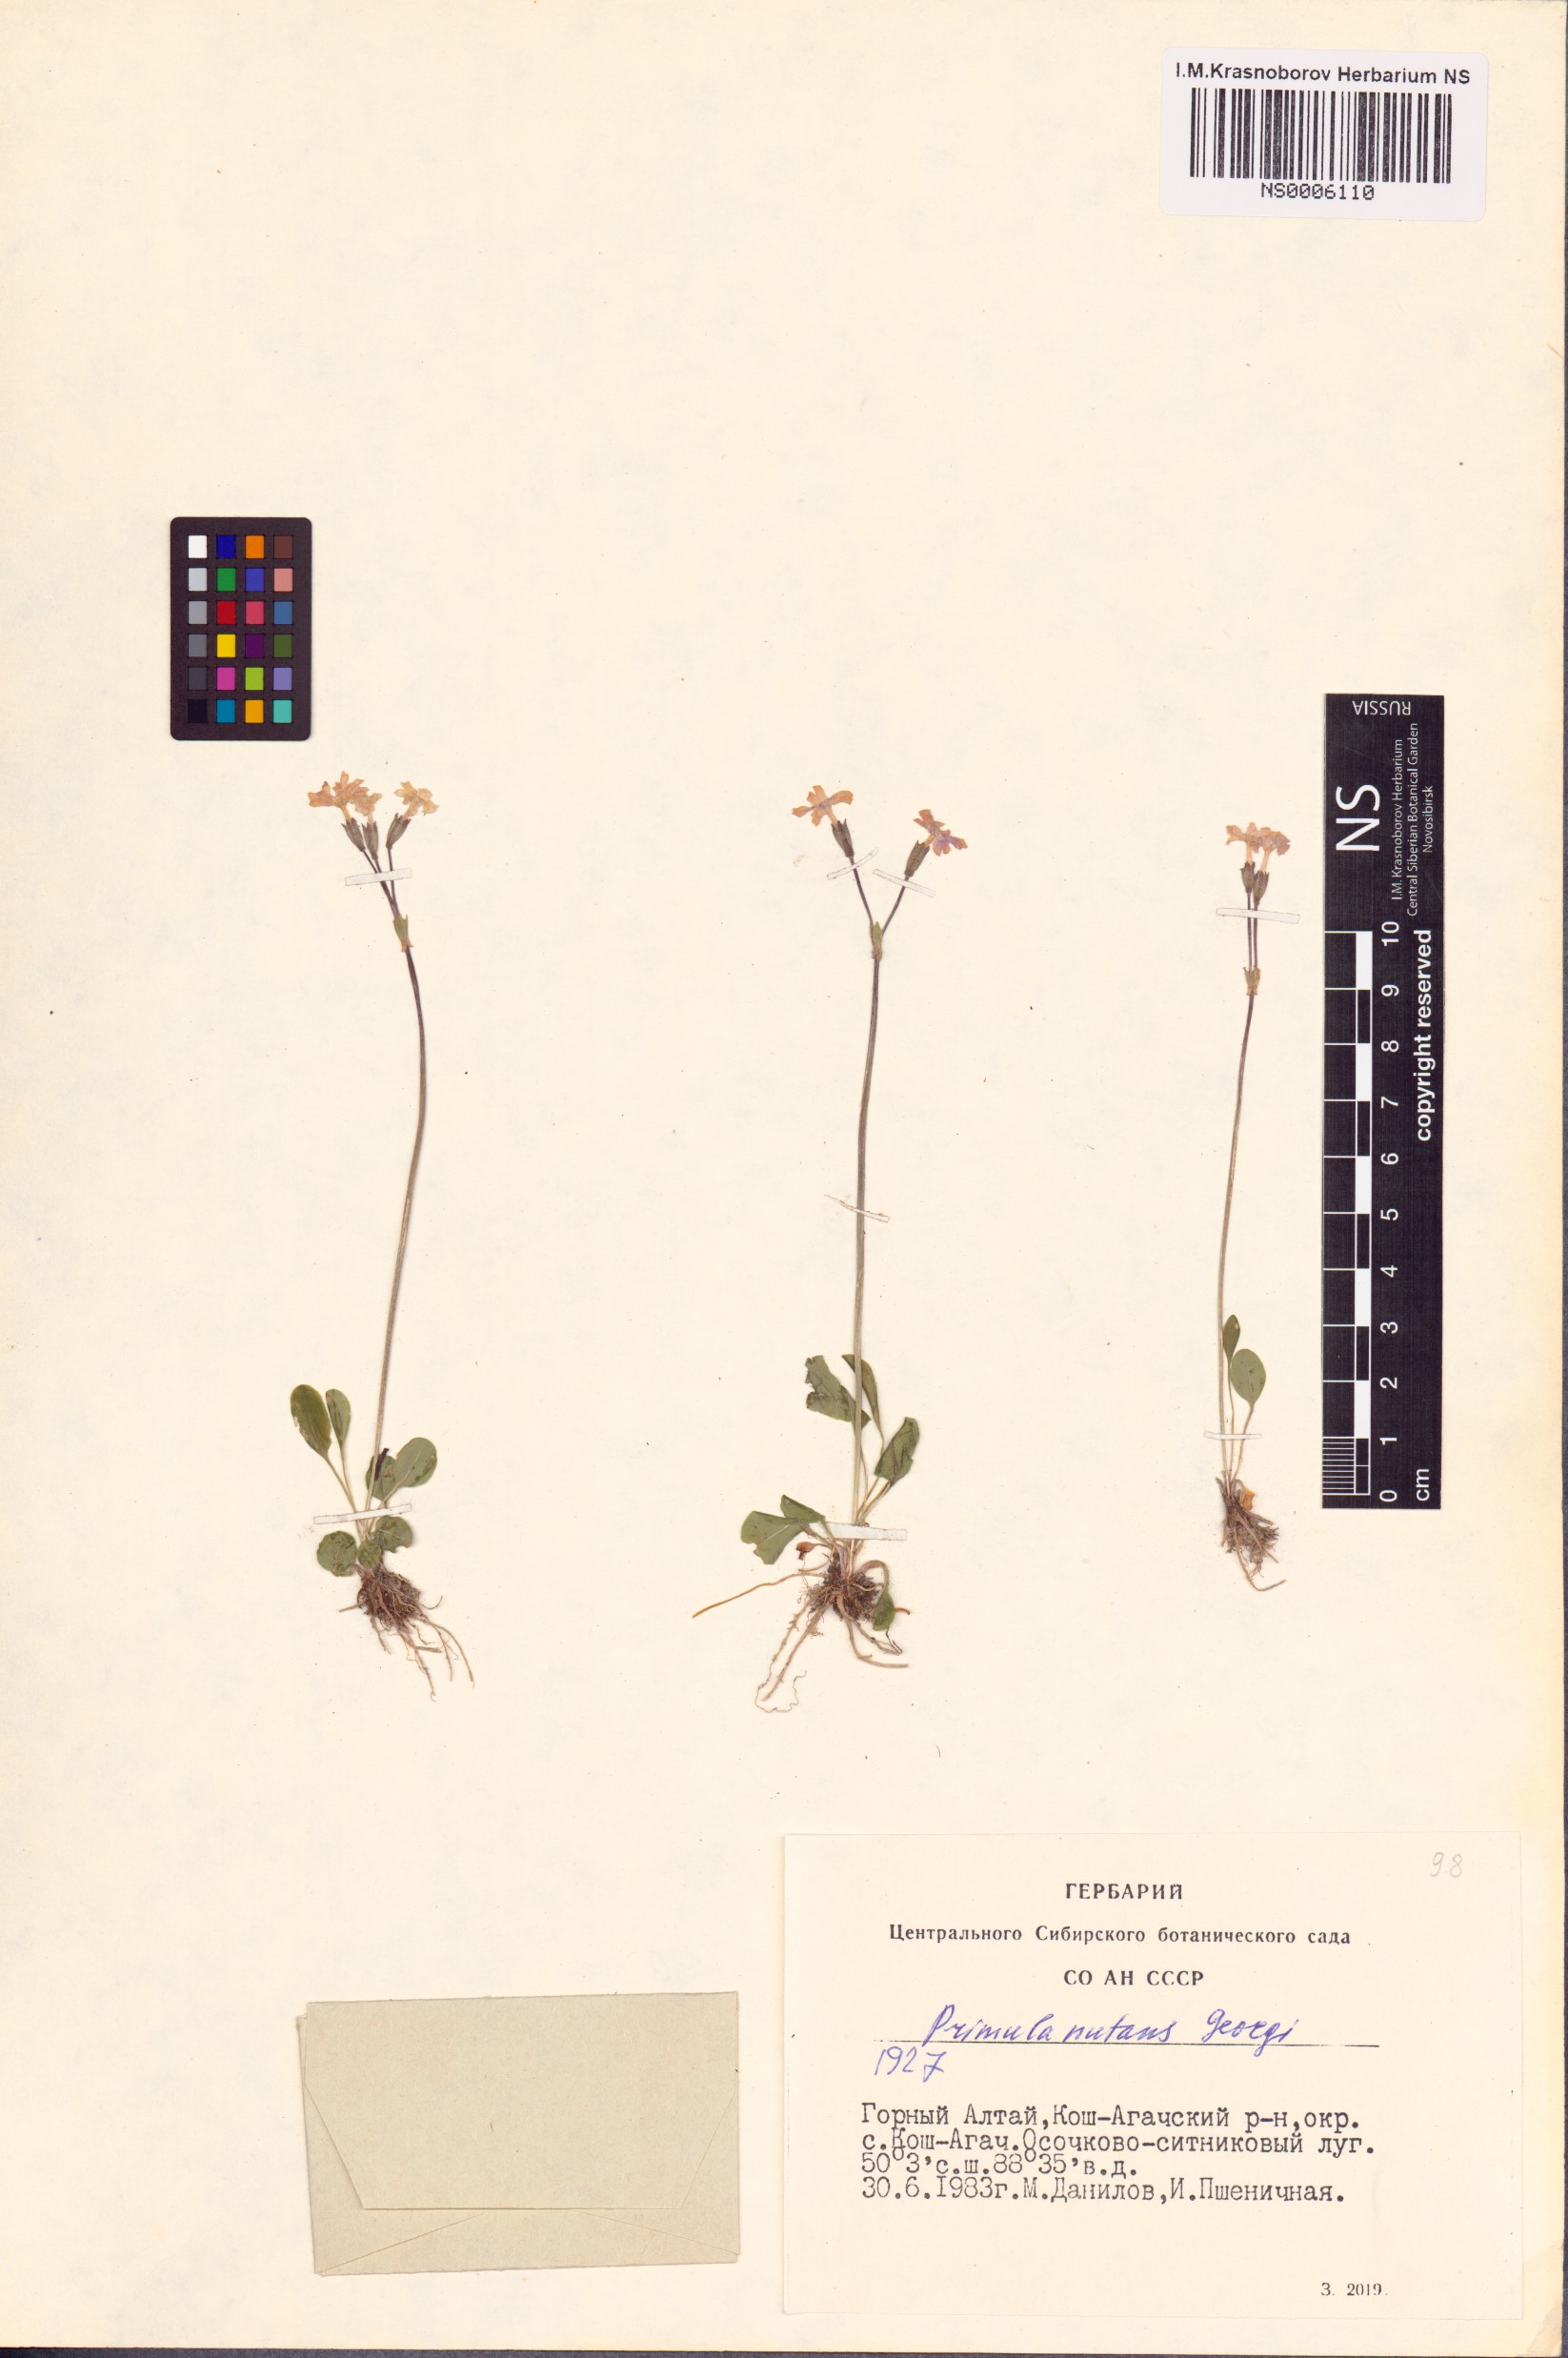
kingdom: Plantae
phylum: Tracheophyta
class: Magnoliopsida
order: Ericales
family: Primulaceae
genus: Primula
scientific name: Primula nutans
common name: Siberian primrose
